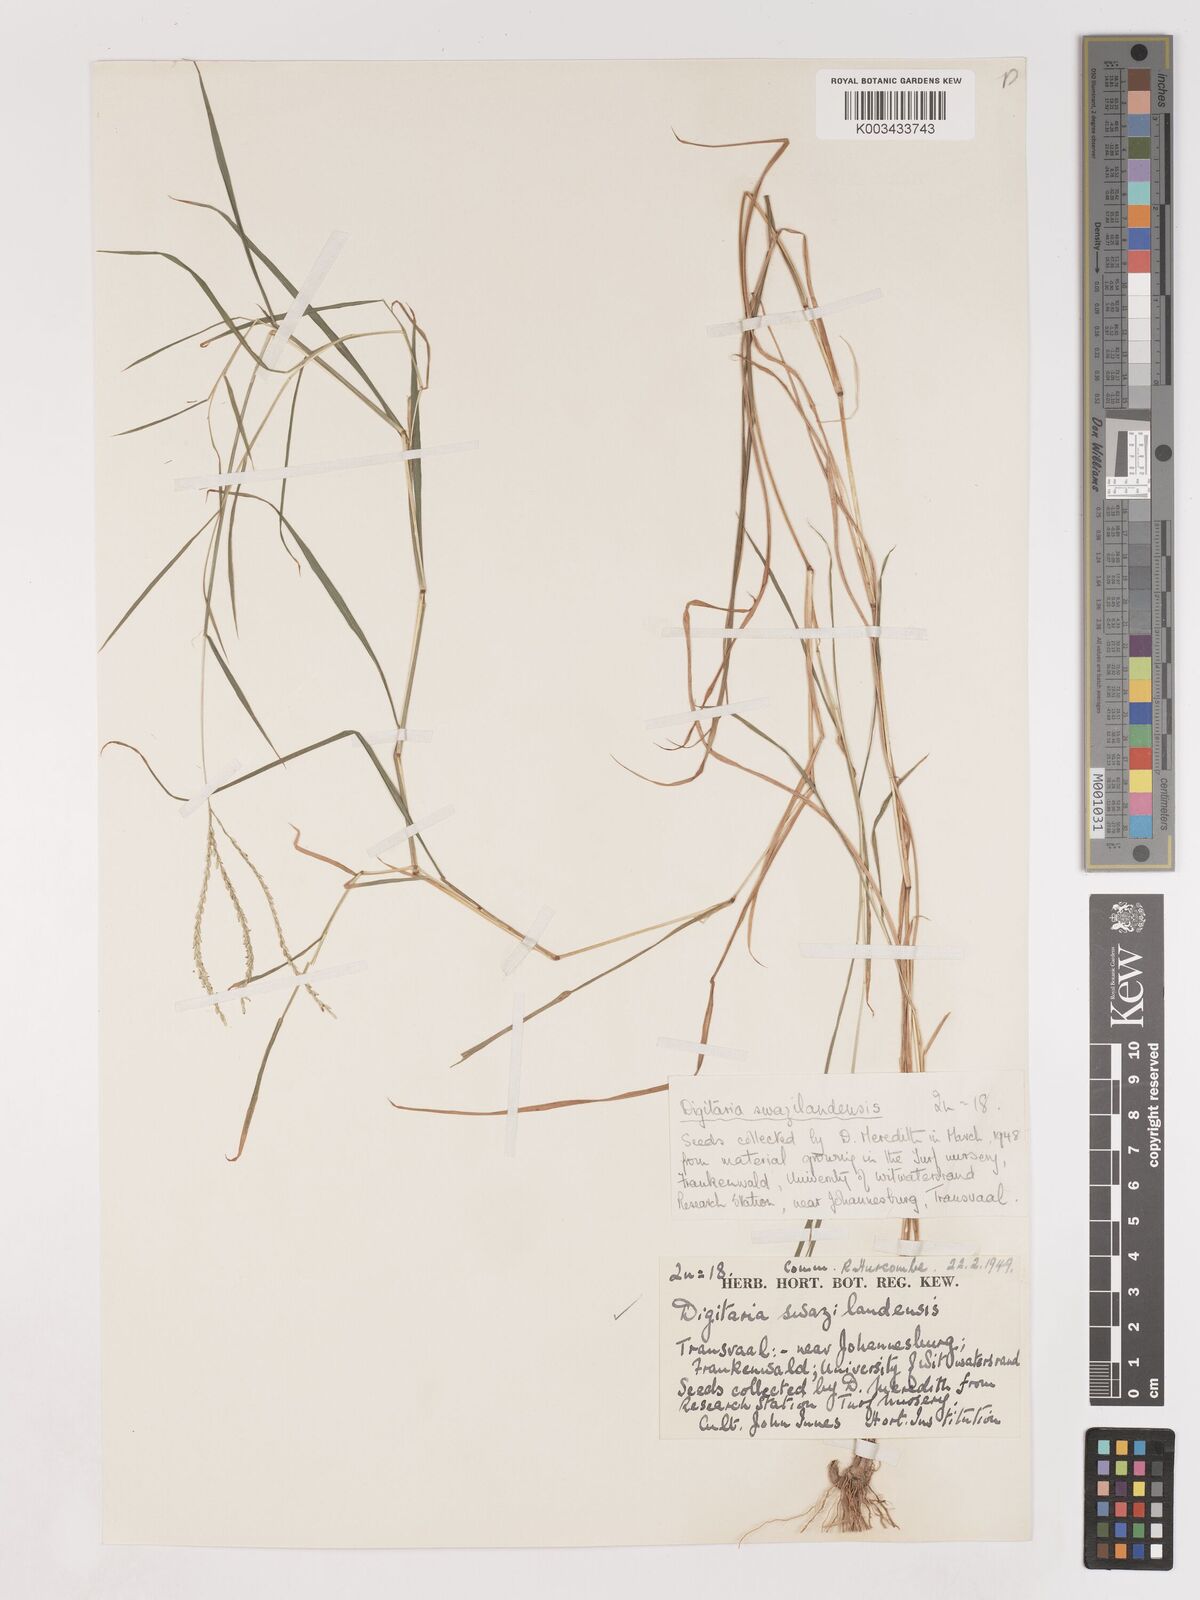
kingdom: Plantae
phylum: Tracheophyta
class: Liliopsida
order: Poales
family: Poaceae
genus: Digitaria
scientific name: Digitaria didactyla
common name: Blue couch
